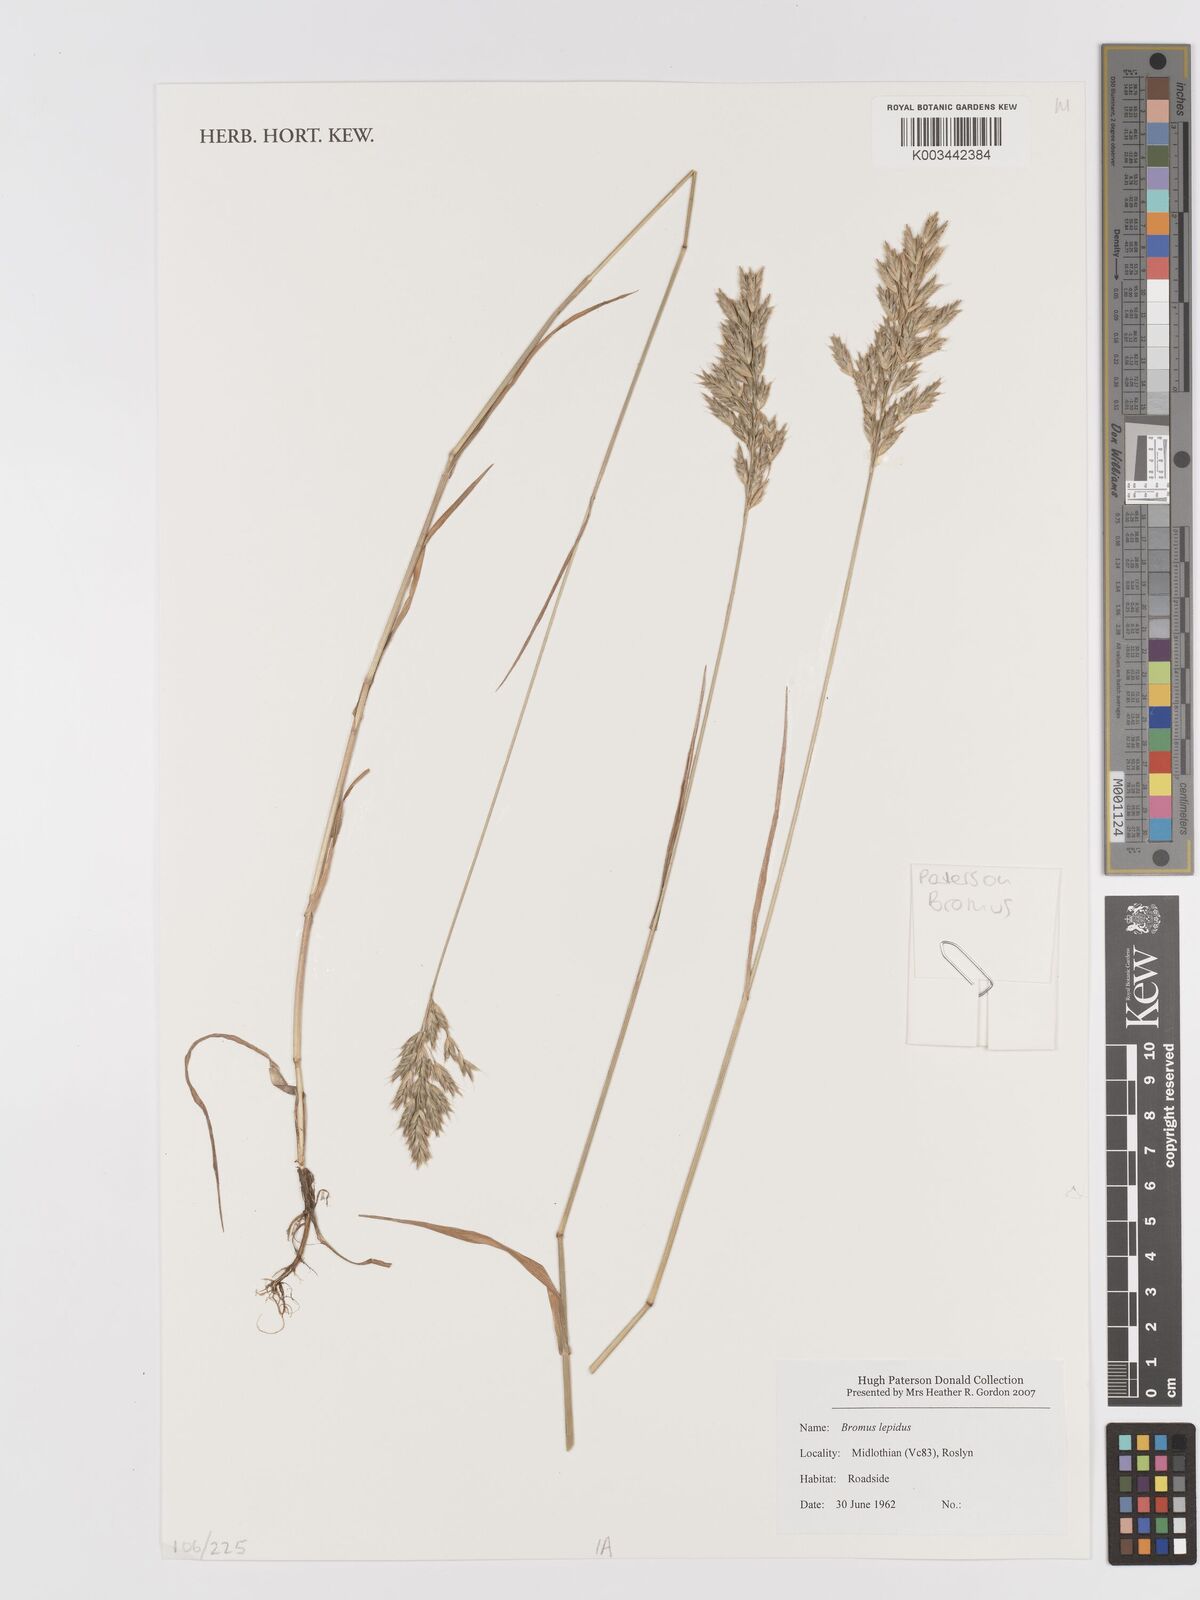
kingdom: Plantae
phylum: Tracheophyta
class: Liliopsida
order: Poales
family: Poaceae
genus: Bromus
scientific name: Bromus lepidus
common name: Slender soft-brome
